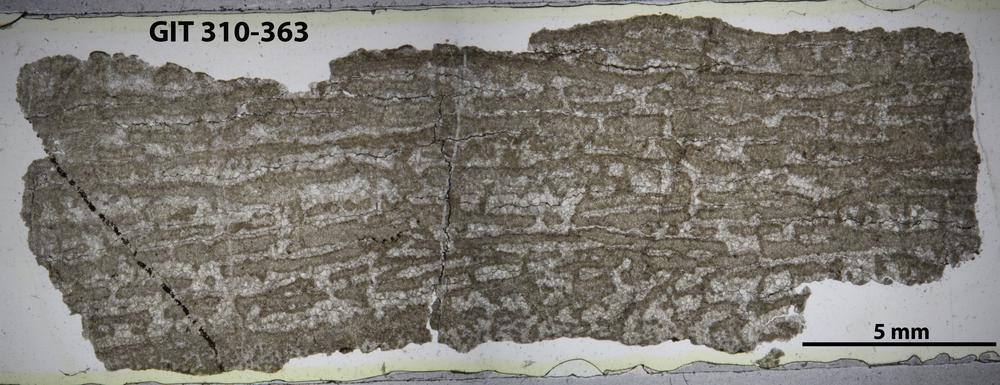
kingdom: Animalia
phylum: Porifera
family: Stylostromatidae
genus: Pachystylostroma
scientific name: Pachystylostroma
